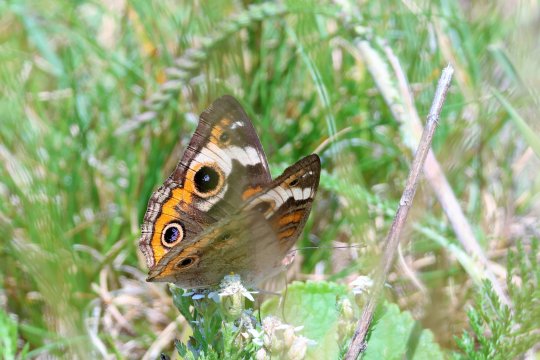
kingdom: Animalia
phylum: Arthropoda
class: Insecta
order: Lepidoptera
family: Nymphalidae
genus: Junonia
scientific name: Junonia coenia
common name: Common Buckeye
